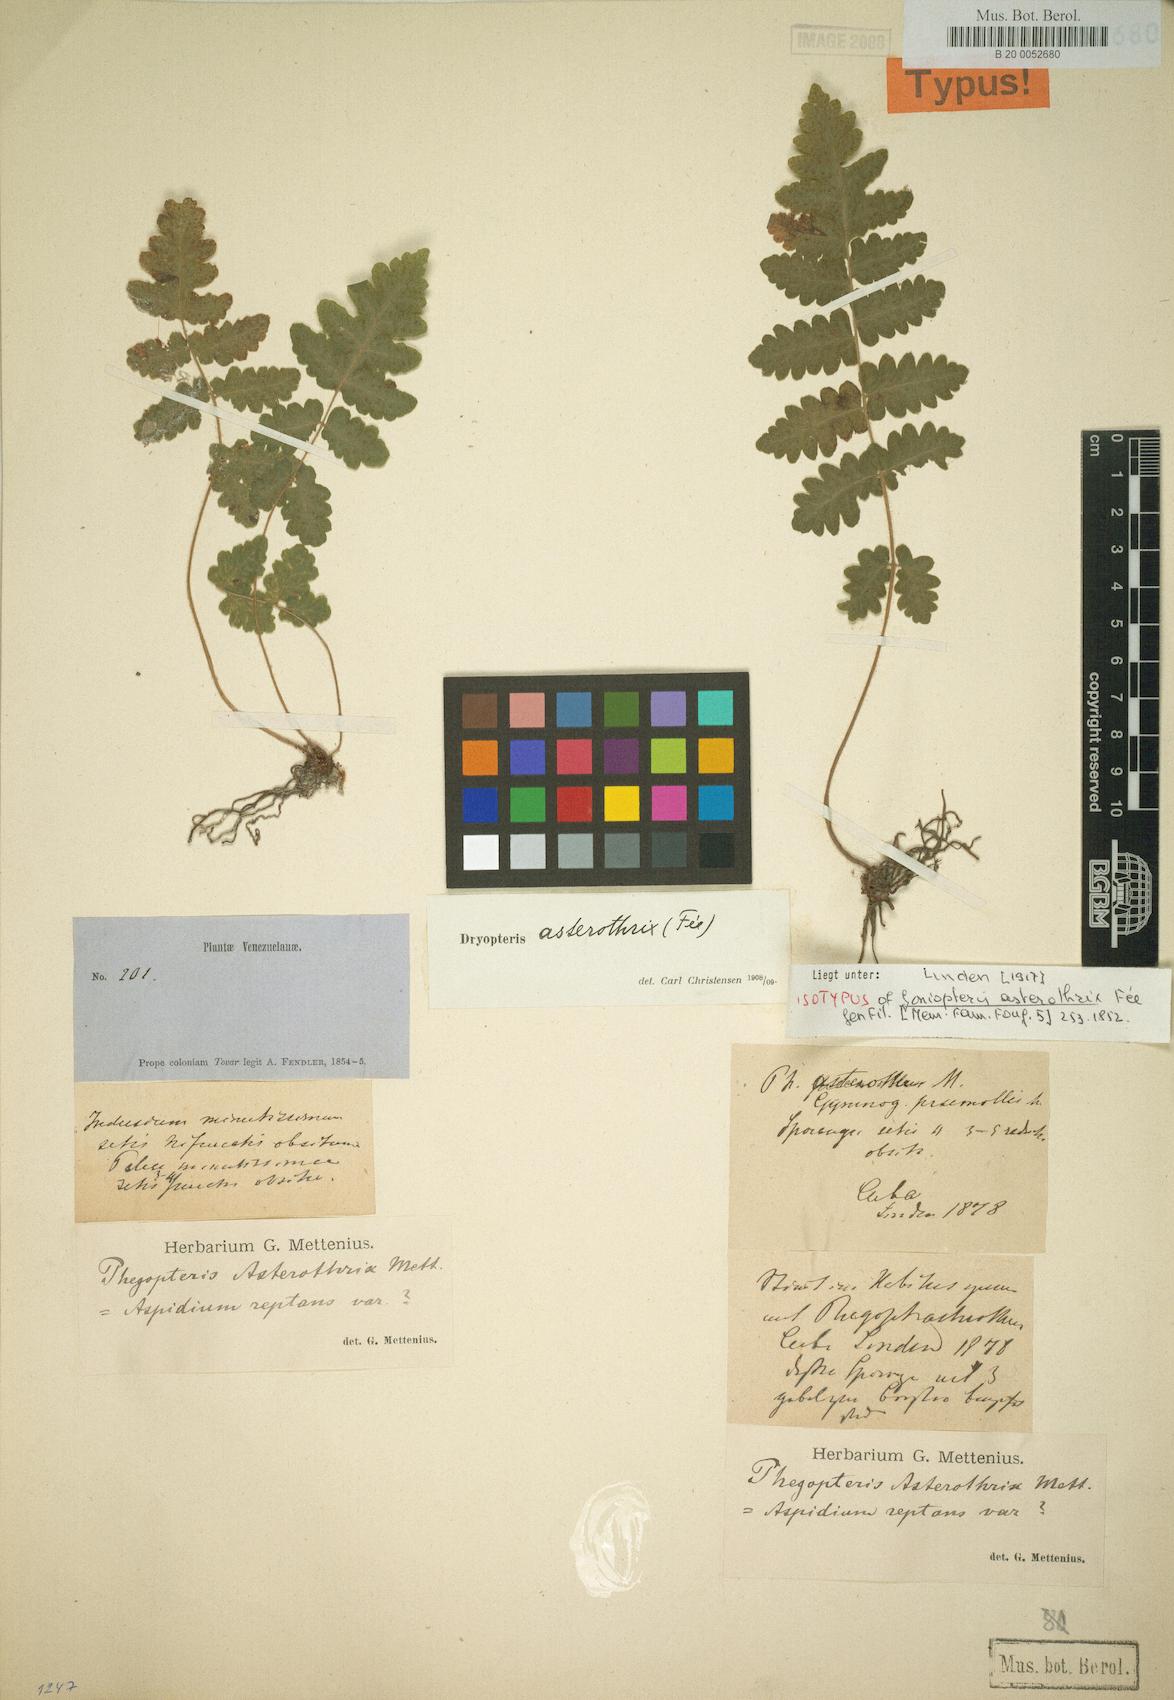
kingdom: Plantae
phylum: Tracheophyta
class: Polypodiopsida
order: Polypodiales
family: Thelypteridaceae
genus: Goniopteris
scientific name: Goniopteris pellita
